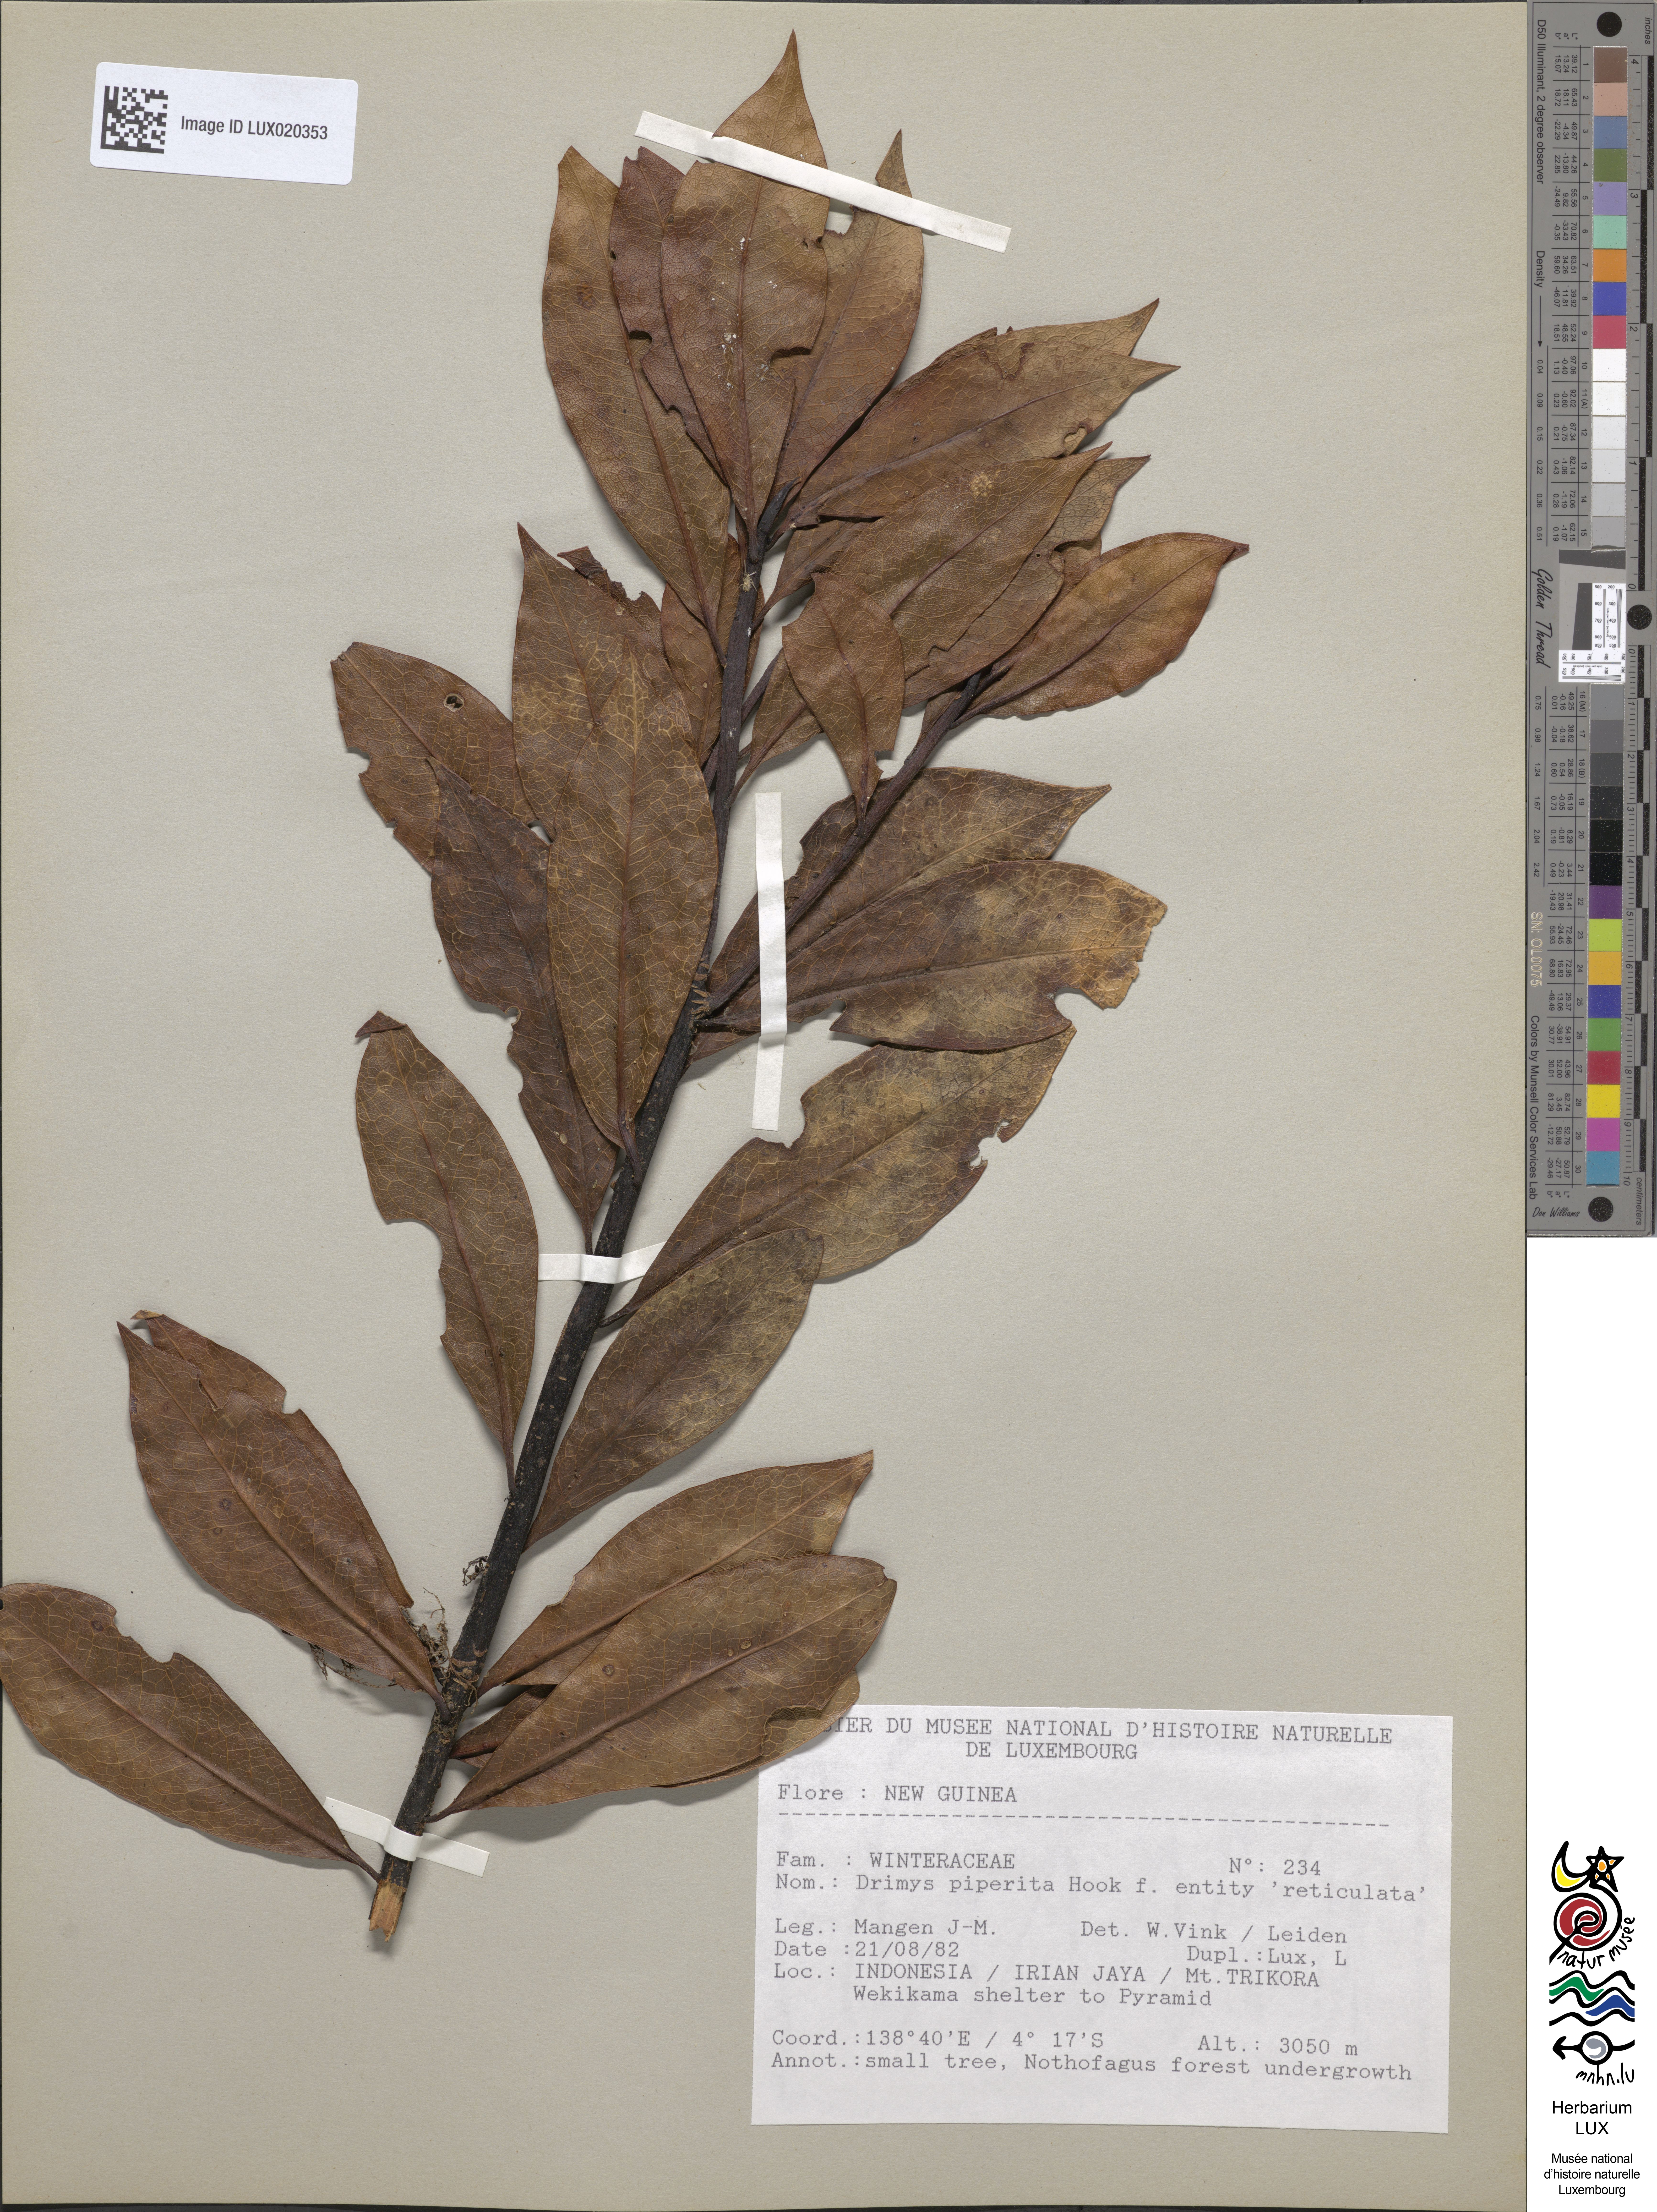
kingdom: Plantae
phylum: Tracheophyta
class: Magnoliopsida
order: Canellales
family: Winteraceae
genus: Drimys
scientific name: Drimys piperita
